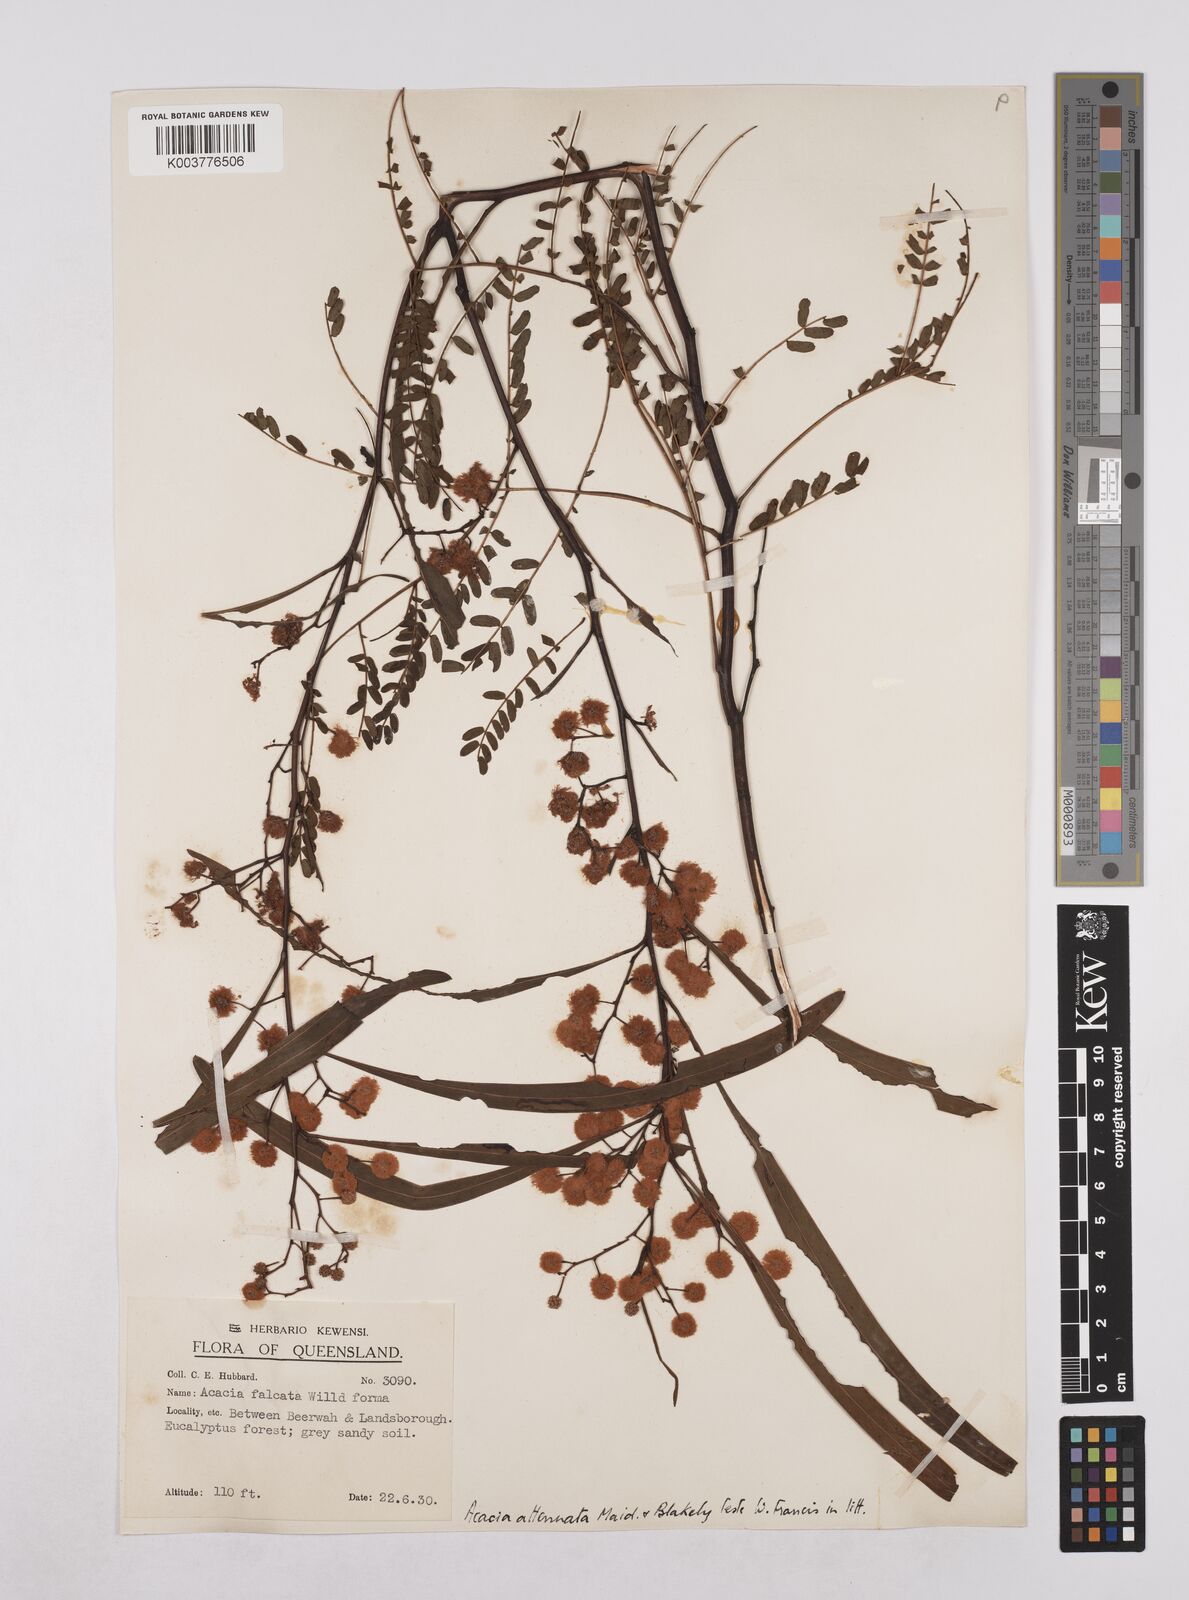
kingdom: Plantae
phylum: Tracheophyta
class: Magnoliopsida
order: Fabales
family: Fabaceae
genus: Acacia
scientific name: Acacia attenuata
